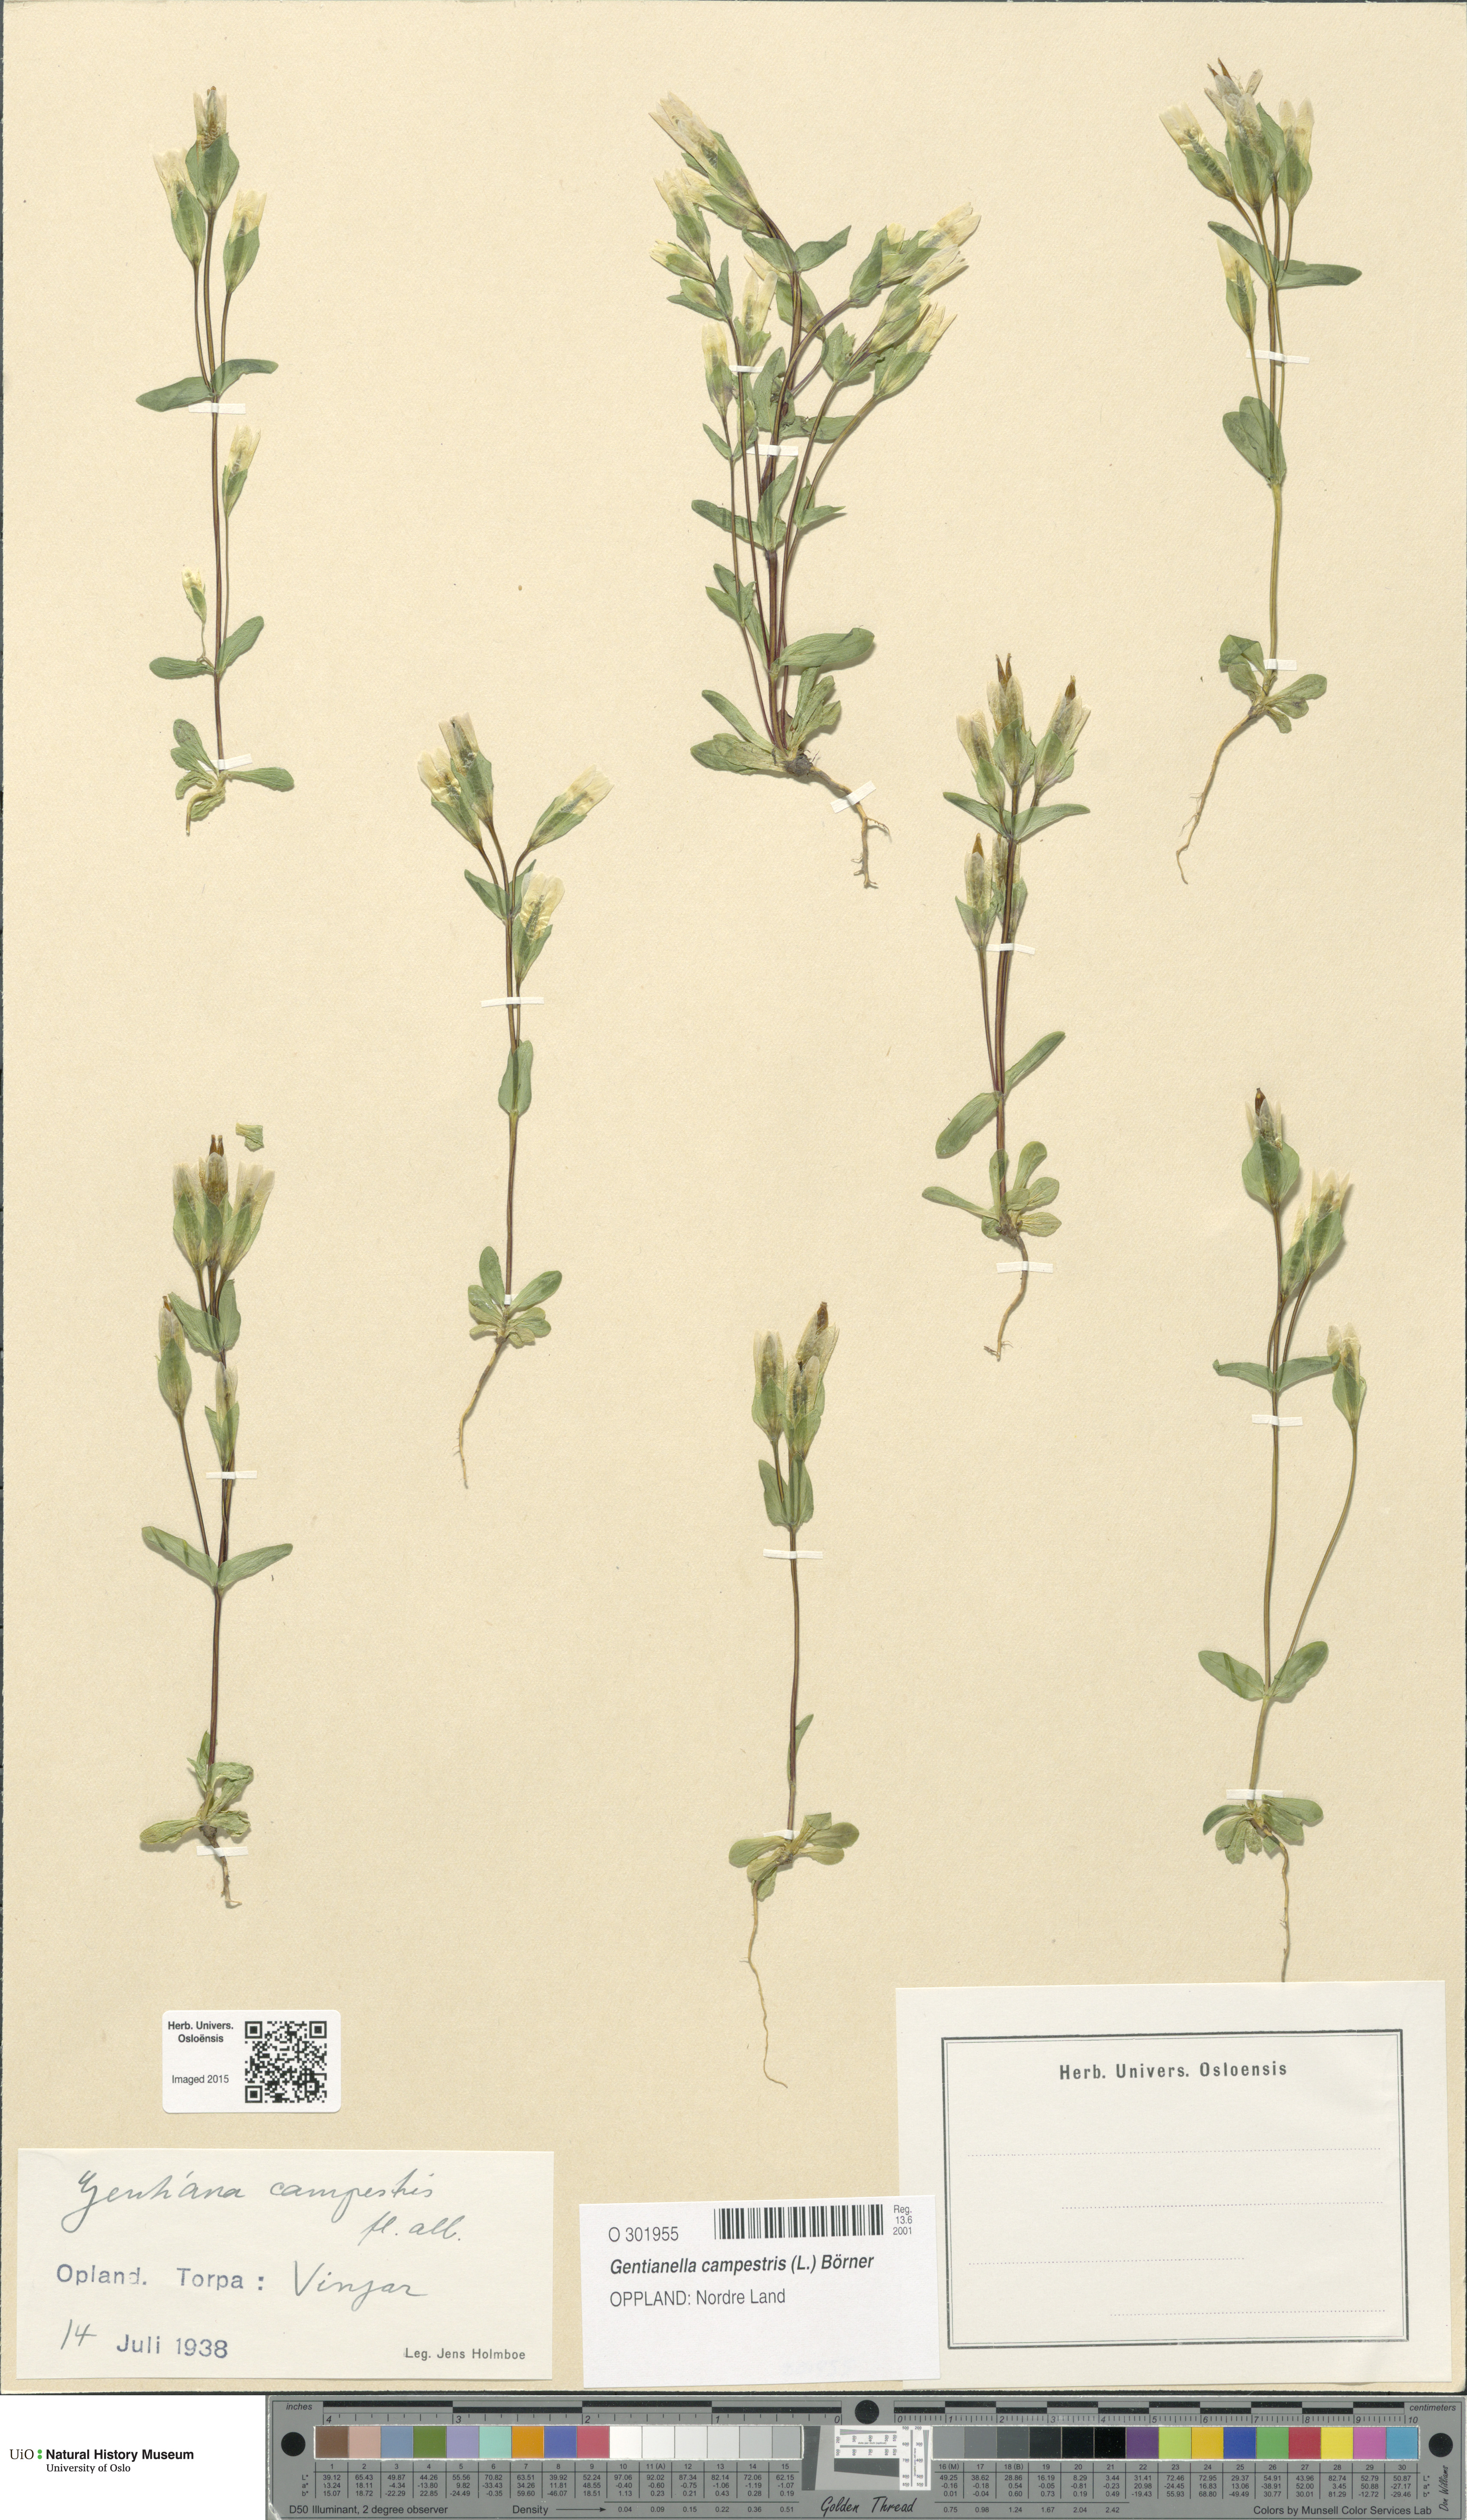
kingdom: Plantae
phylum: Tracheophyta
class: Magnoliopsida
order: Gentianales
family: Gentianaceae
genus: Gentianella
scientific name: Gentianella campestris
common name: Field gentian
